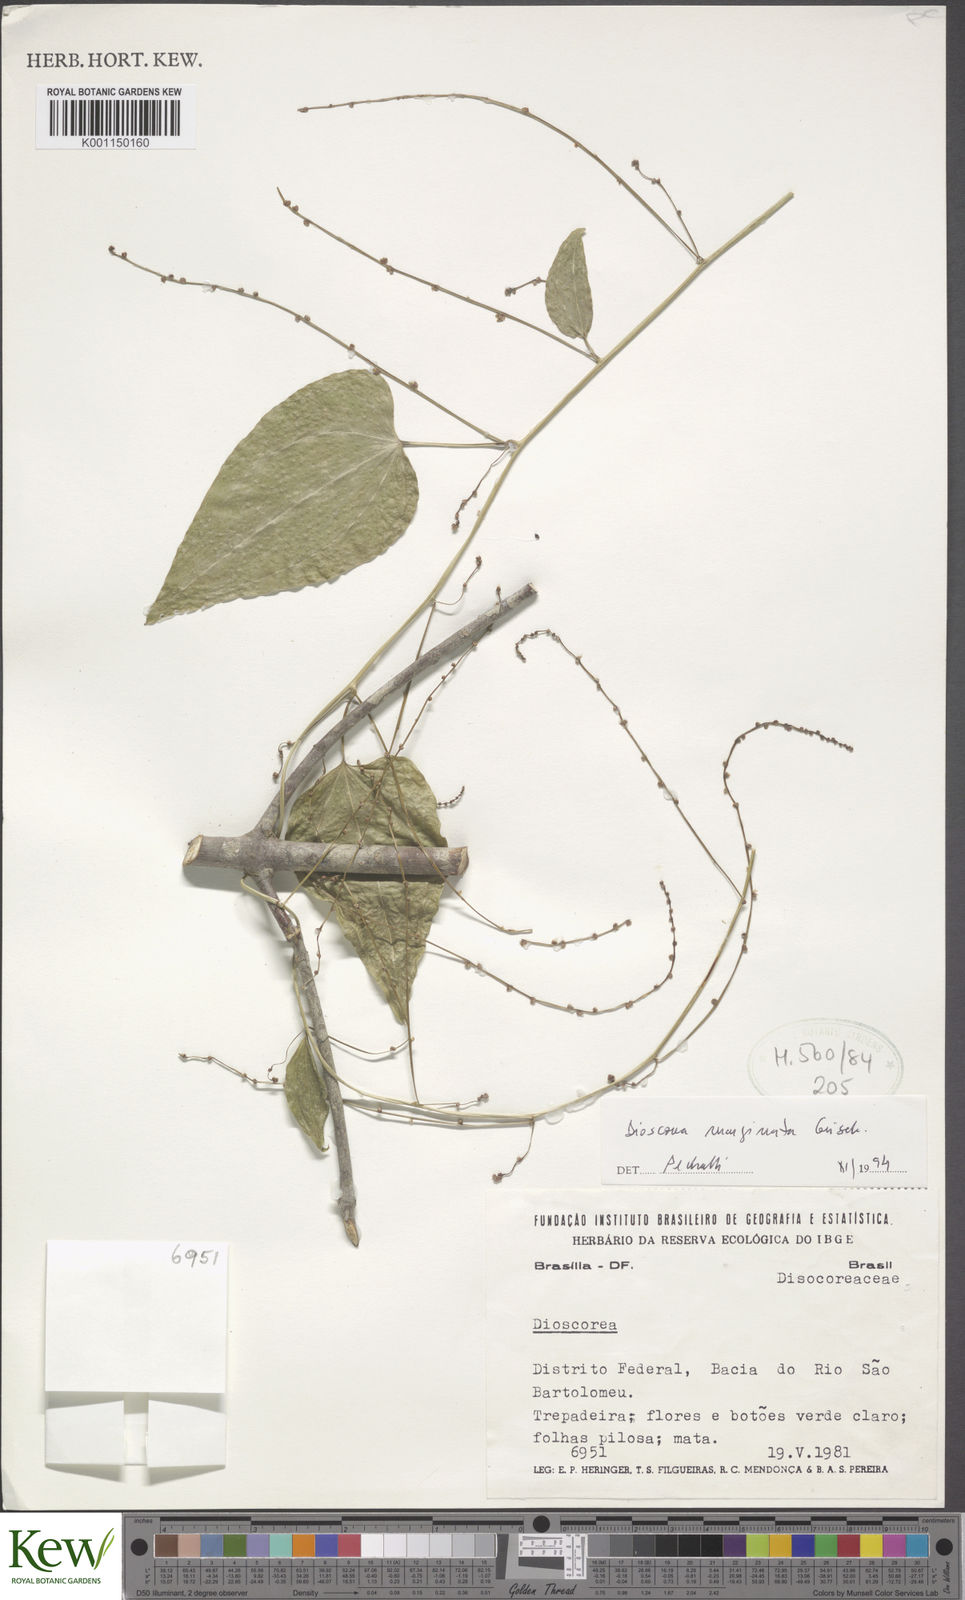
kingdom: Plantae
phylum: Tracheophyta
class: Liliopsida
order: Dioscoreales
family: Dioscoreaceae
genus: Dioscorea
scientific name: Dioscorea marginata
